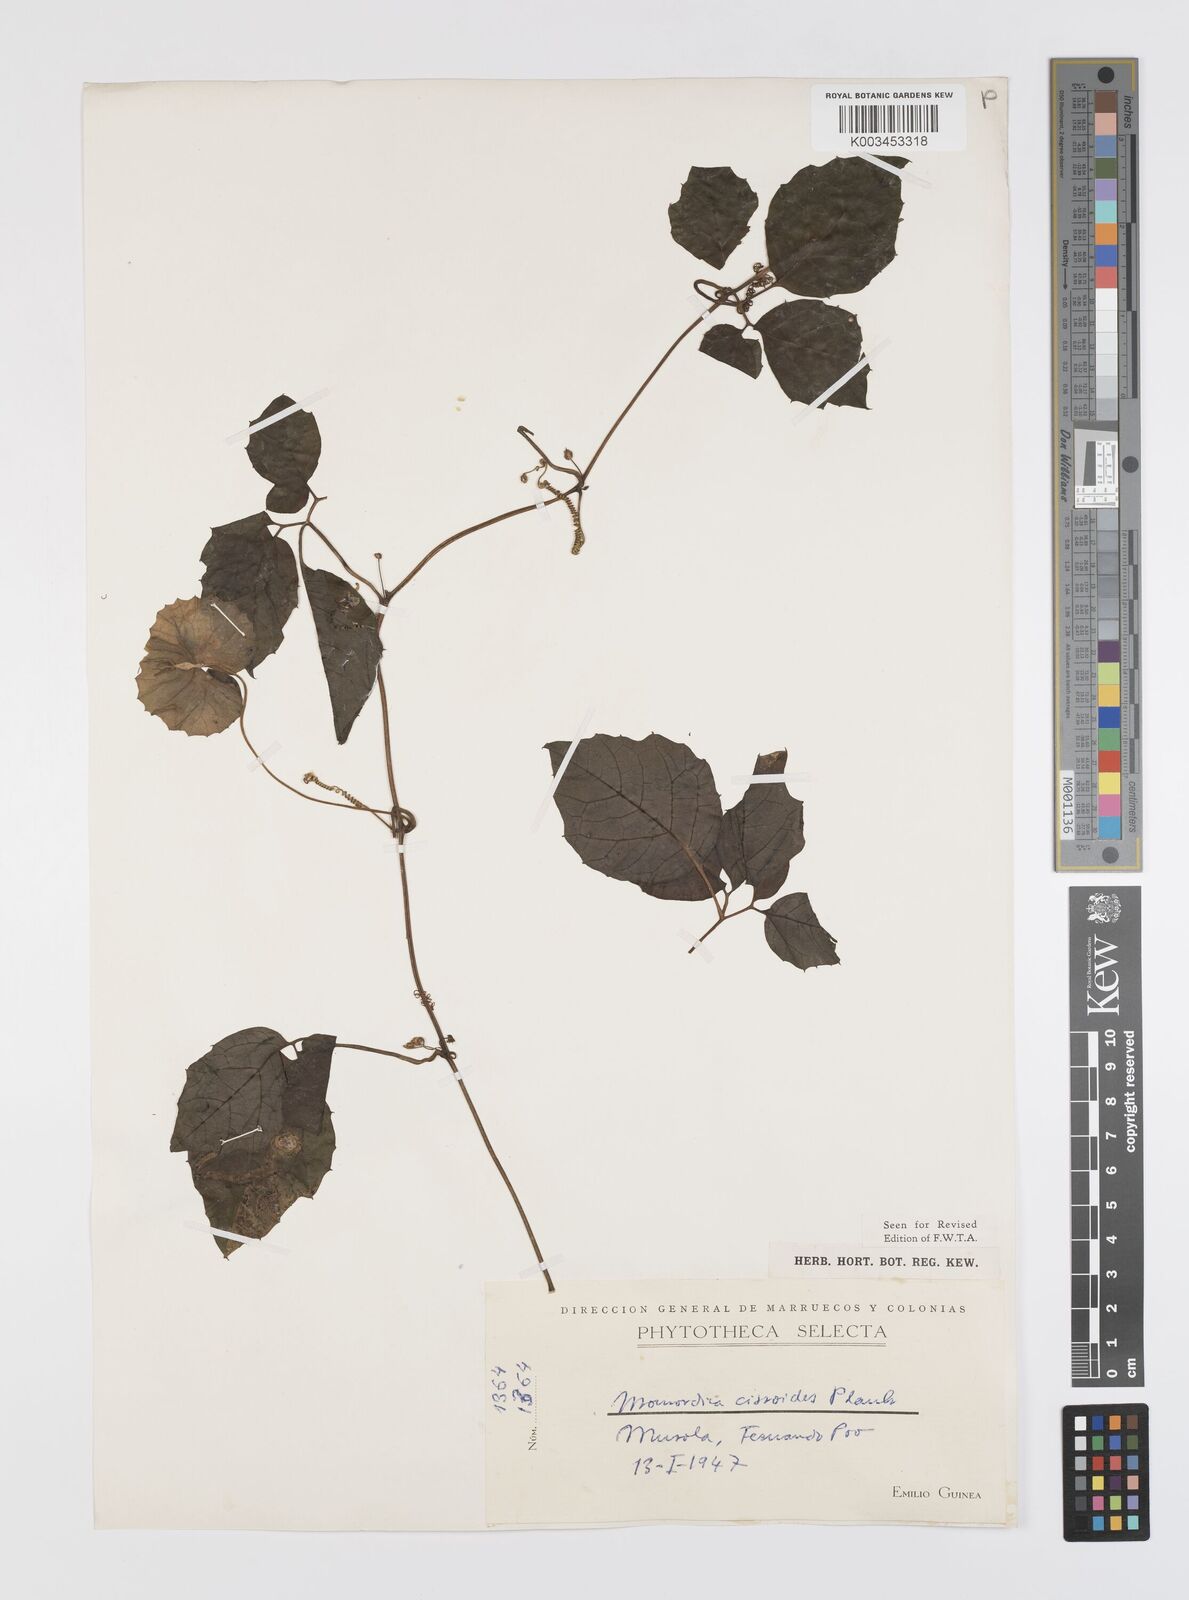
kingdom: Plantae
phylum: Tracheophyta
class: Magnoliopsida
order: Cucurbitales
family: Cucurbitaceae
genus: Momordica
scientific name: Momordica cissoides
